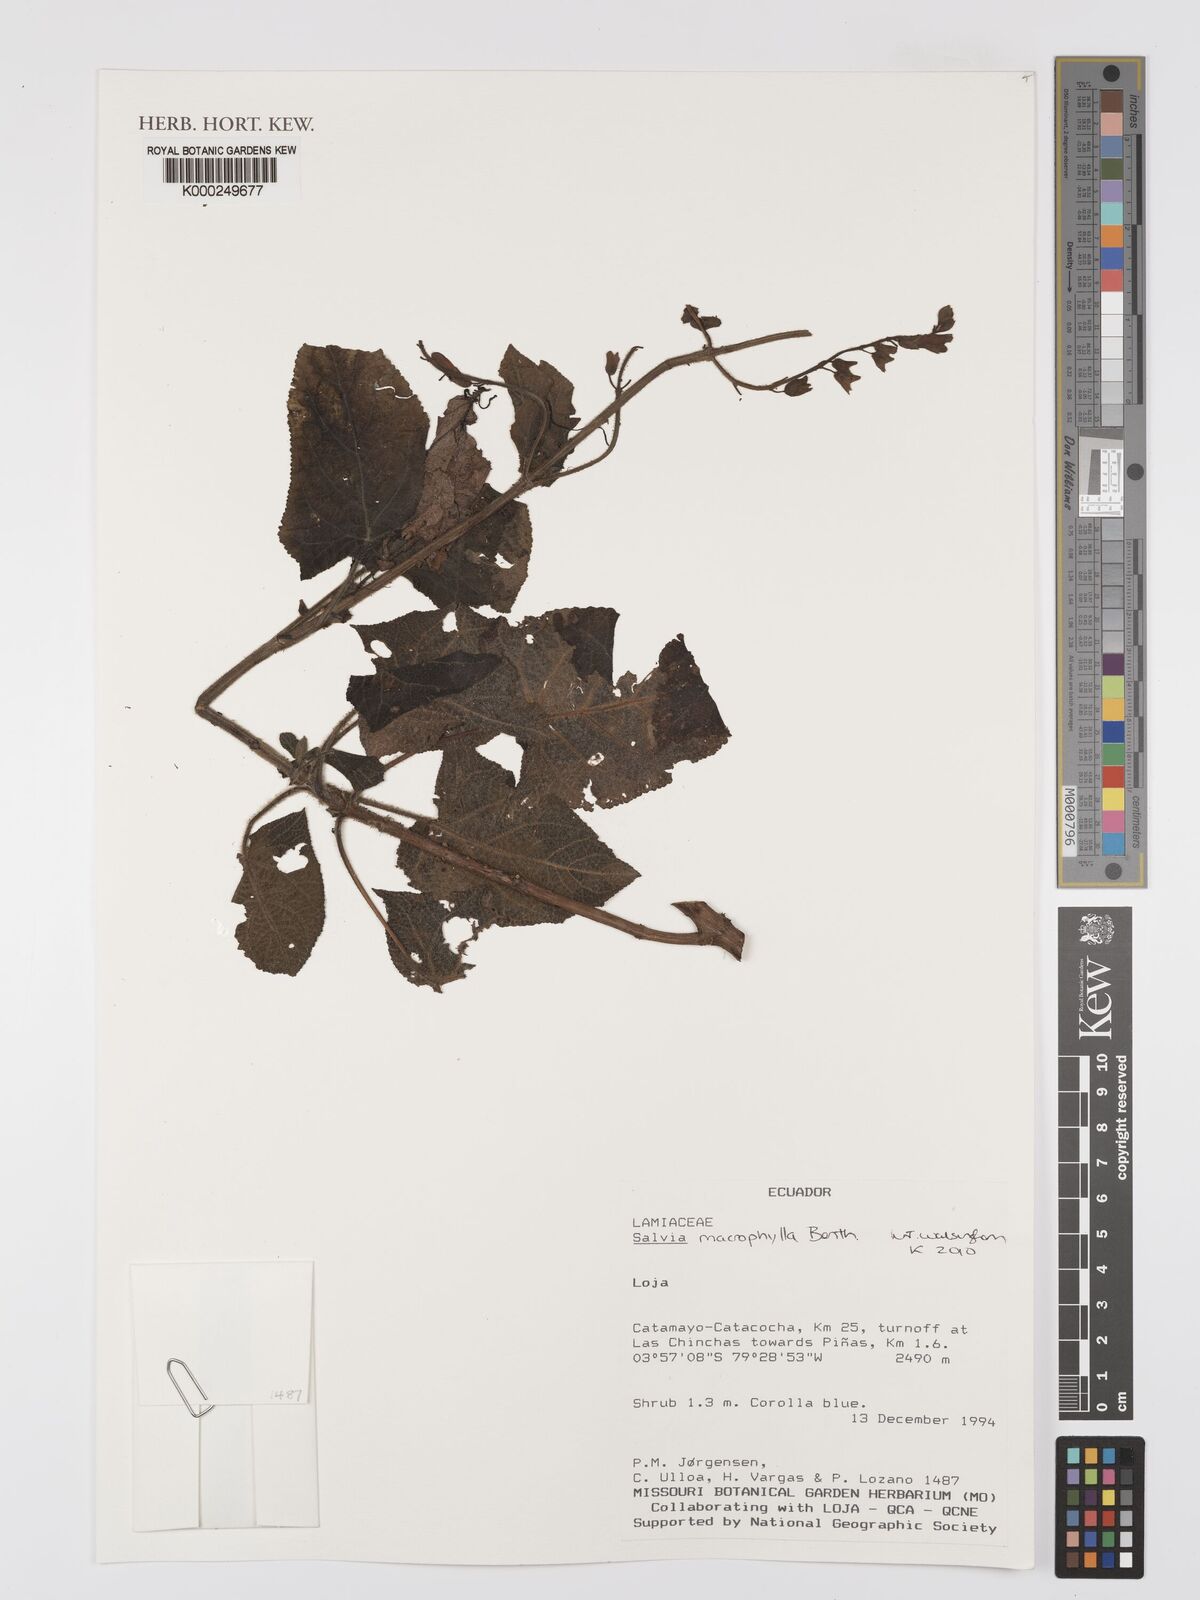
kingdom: Plantae
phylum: Tracheophyta
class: Magnoliopsida
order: Lamiales
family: Lamiaceae
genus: Salvia
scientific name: Salvia macrophylla
